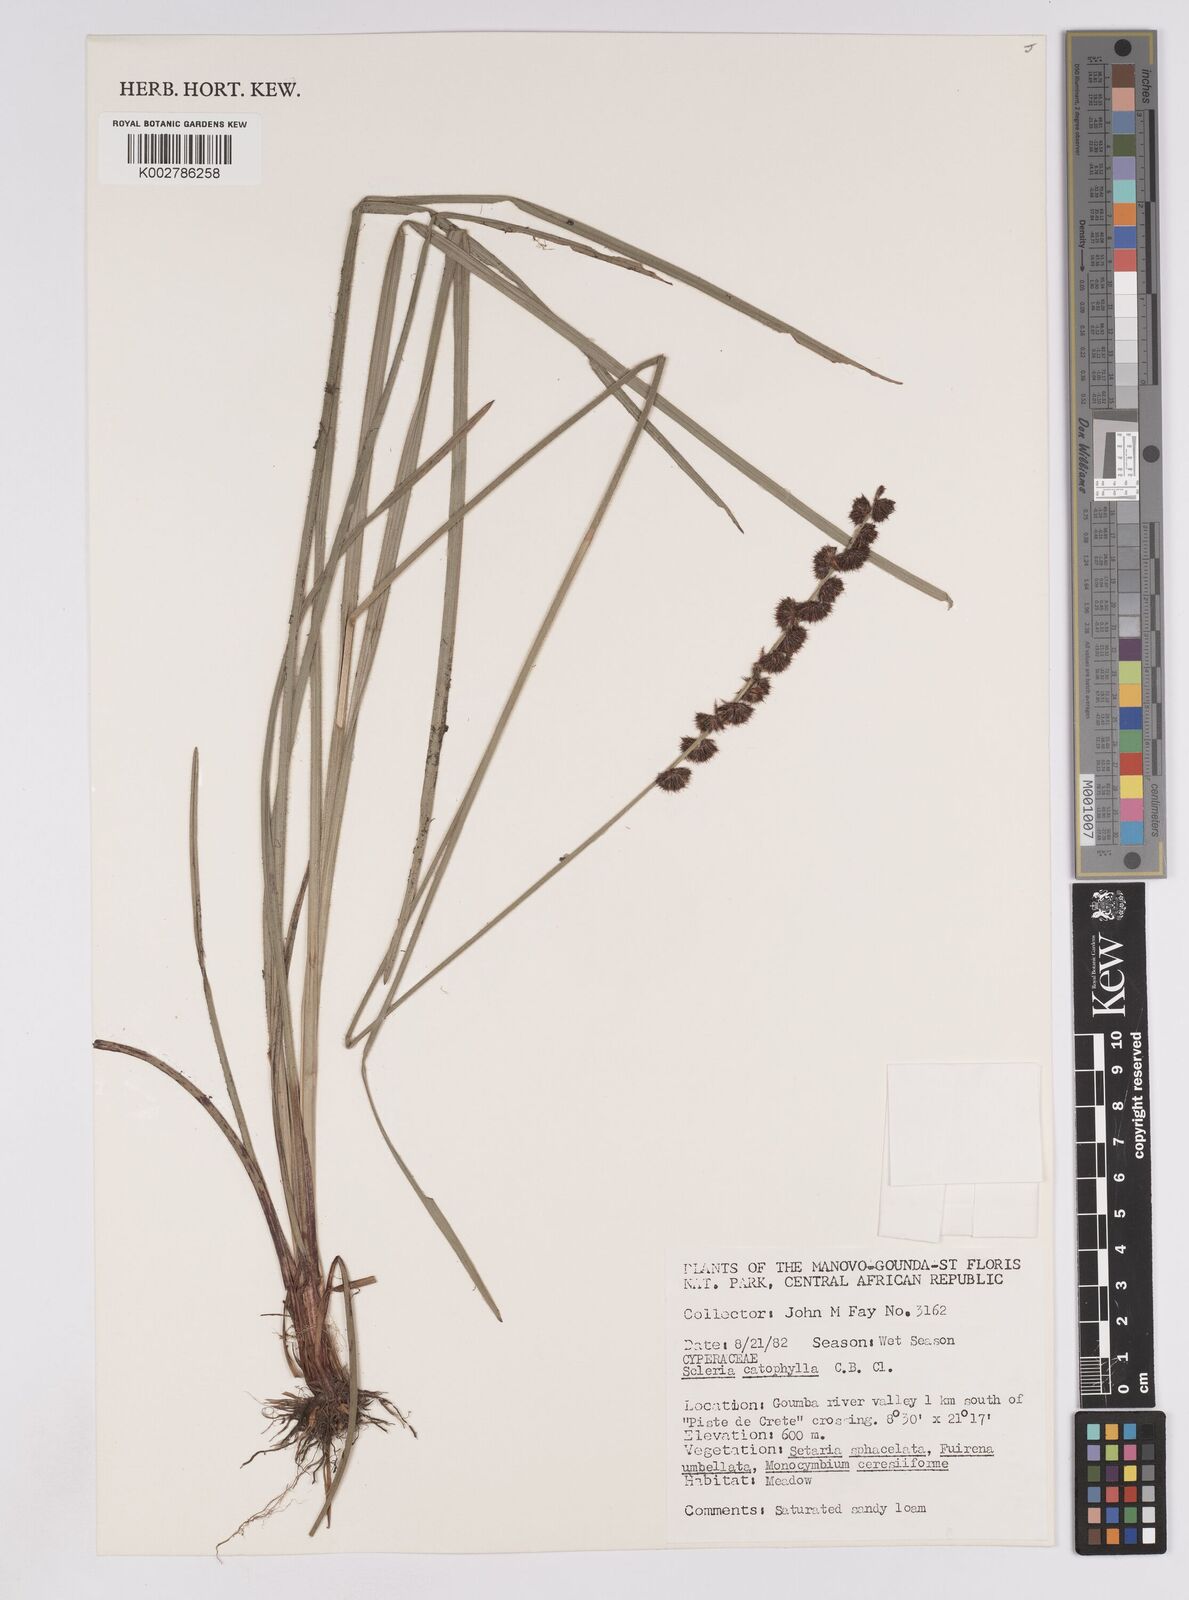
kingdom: Plantae
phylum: Tracheophyta
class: Liliopsida
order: Poales
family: Cyperaceae
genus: Scleria
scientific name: Scleria catophylla
